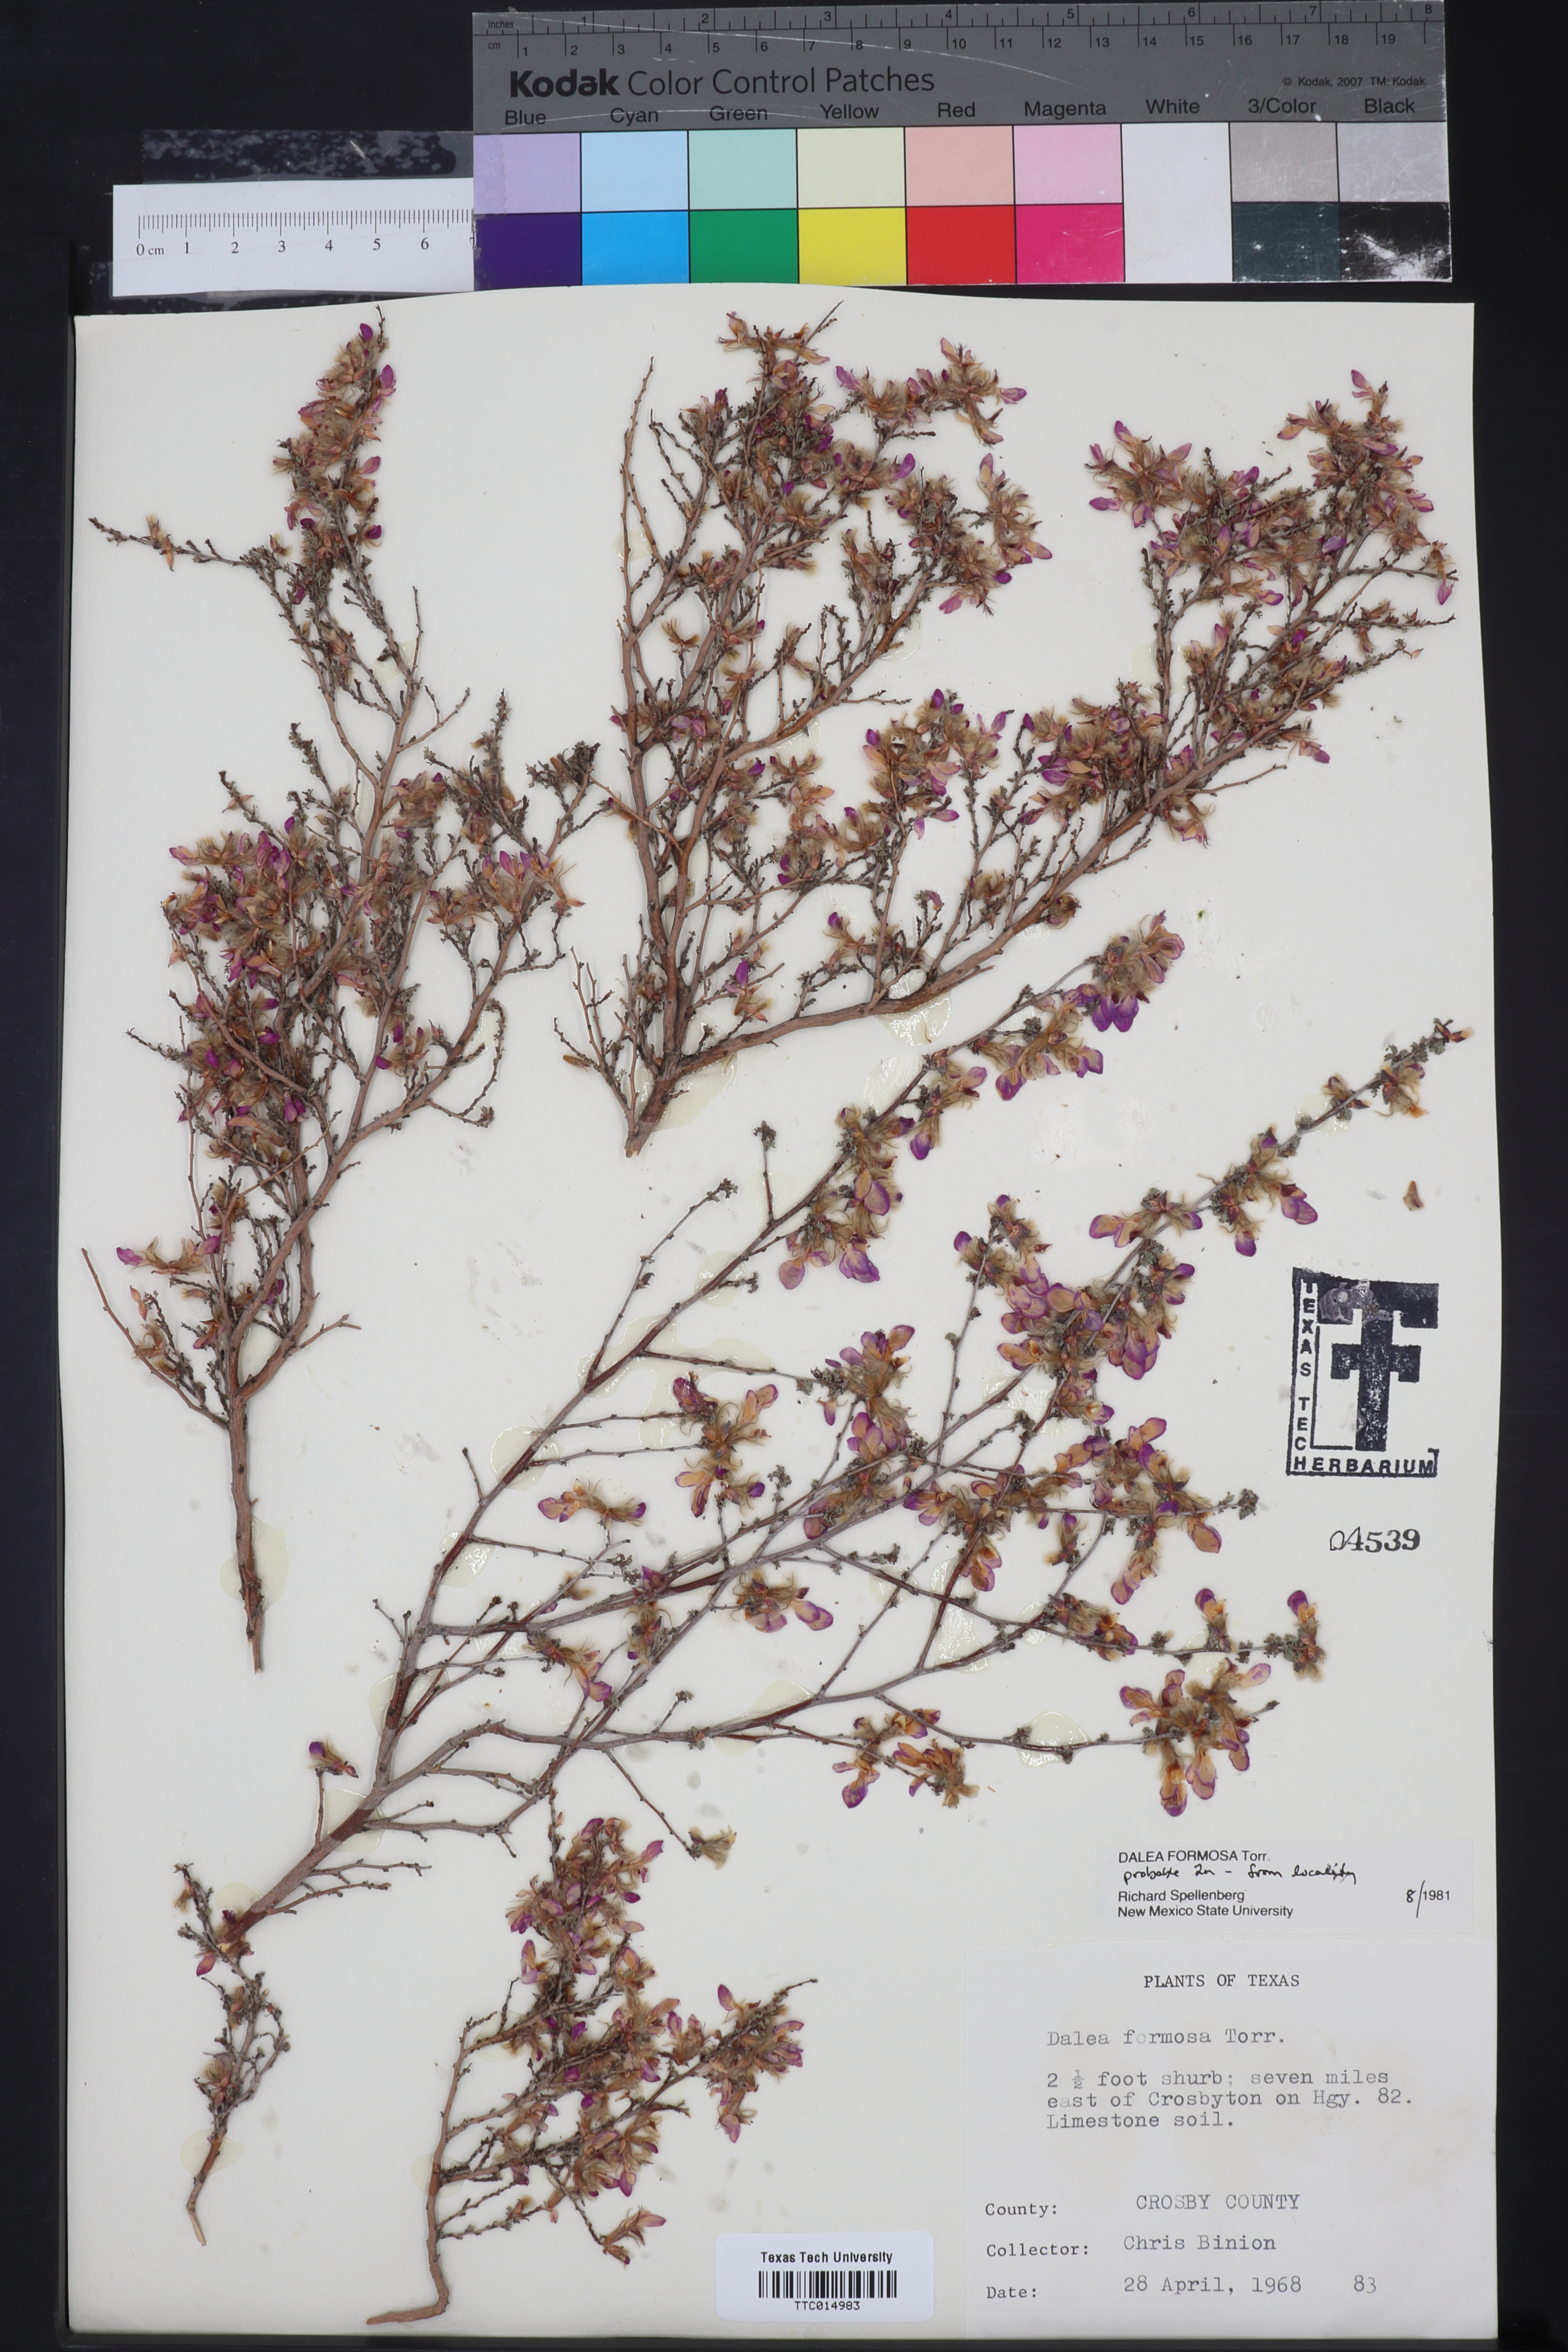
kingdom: Plantae
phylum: Tracheophyta
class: Magnoliopsida
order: Fabales
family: Fabaceae
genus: Dalea
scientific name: Dalea formosa
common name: Feather-plume dalea
